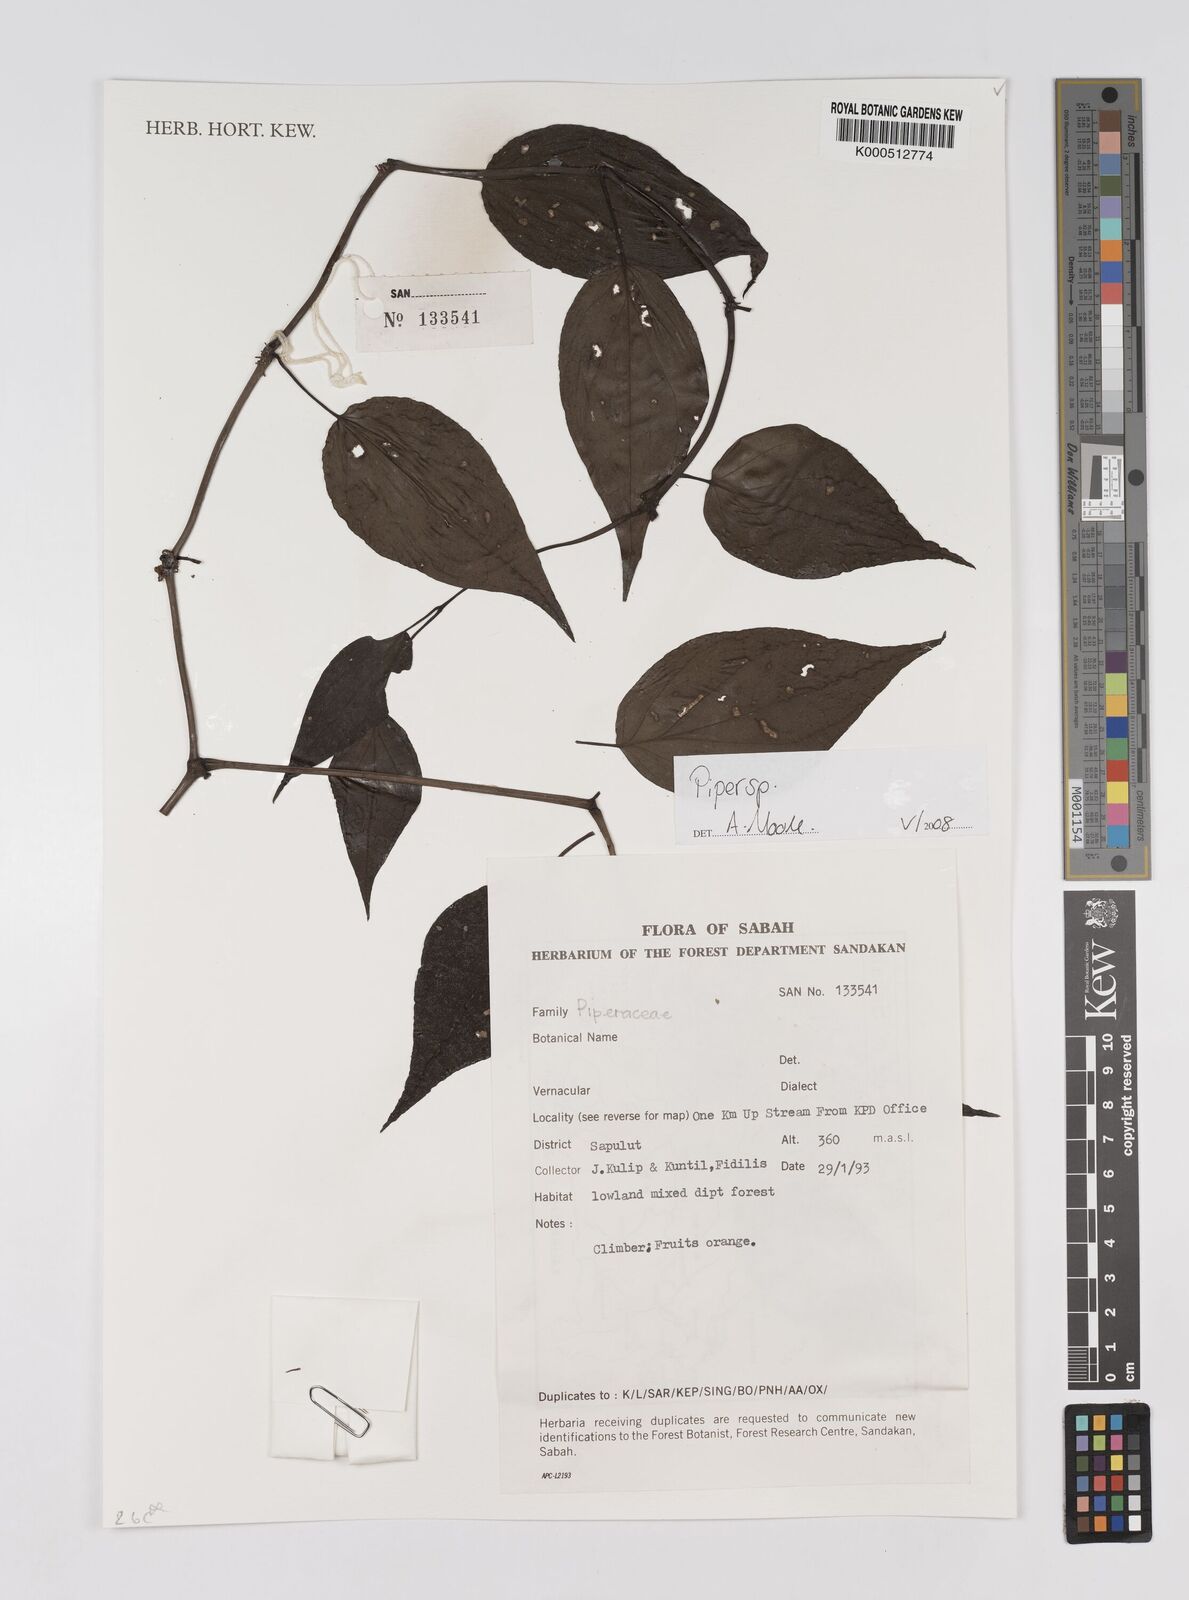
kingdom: Plantae
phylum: Tracheophyta
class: Magnoliopsida
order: Piperales
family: Piperaceae
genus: Piper
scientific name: Piper
